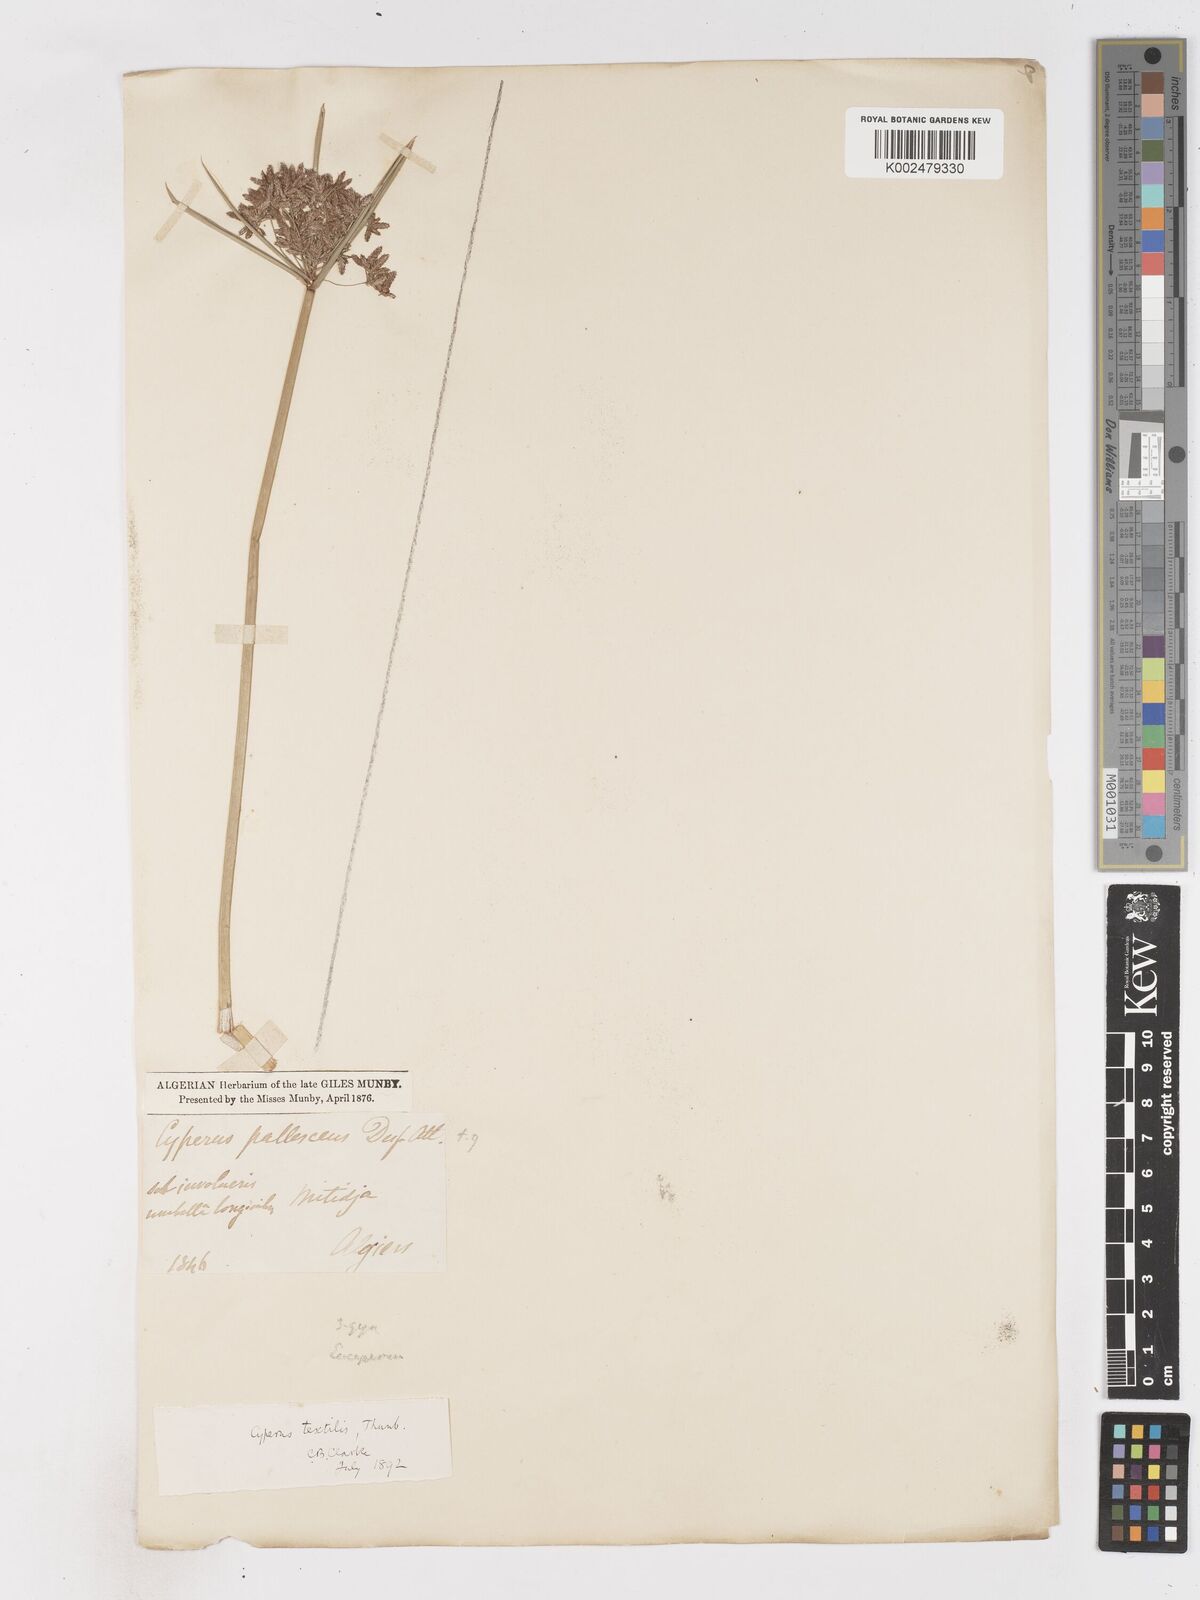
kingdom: Plantae
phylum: Tracheophyta
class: Liliopsida
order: Poales
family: Cyperaceae
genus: Cyperus
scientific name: Cyperus alternifolius
